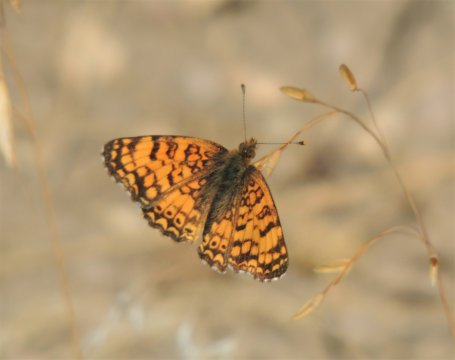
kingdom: Animalia
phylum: Arthropoda
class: Insecta
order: Lepidoptera
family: Nymphalidae
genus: Eresia
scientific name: Eresia aveyrona
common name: Mylitta Crescent
